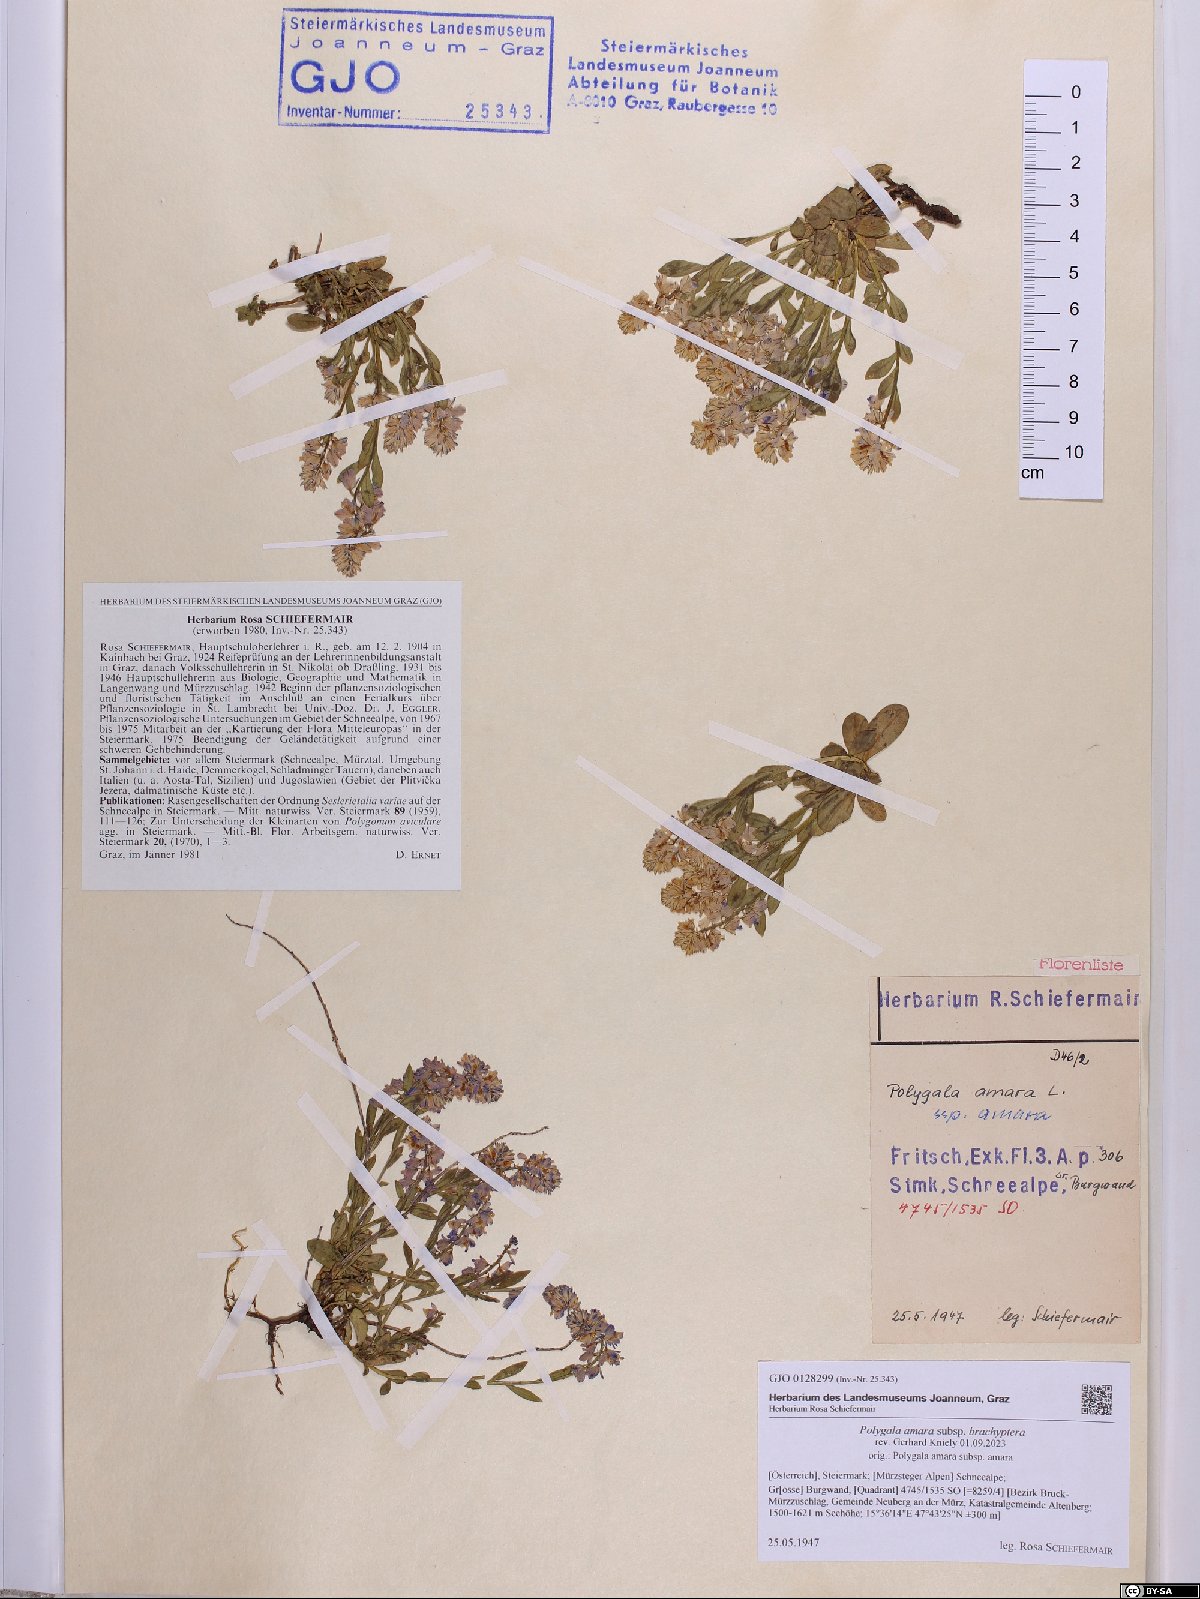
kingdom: Plantae
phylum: Tracheophyta
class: Magnoliopsida
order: Fabales
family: Polygalaceae
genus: Polygala
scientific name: Polygala amara
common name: Milkwort
